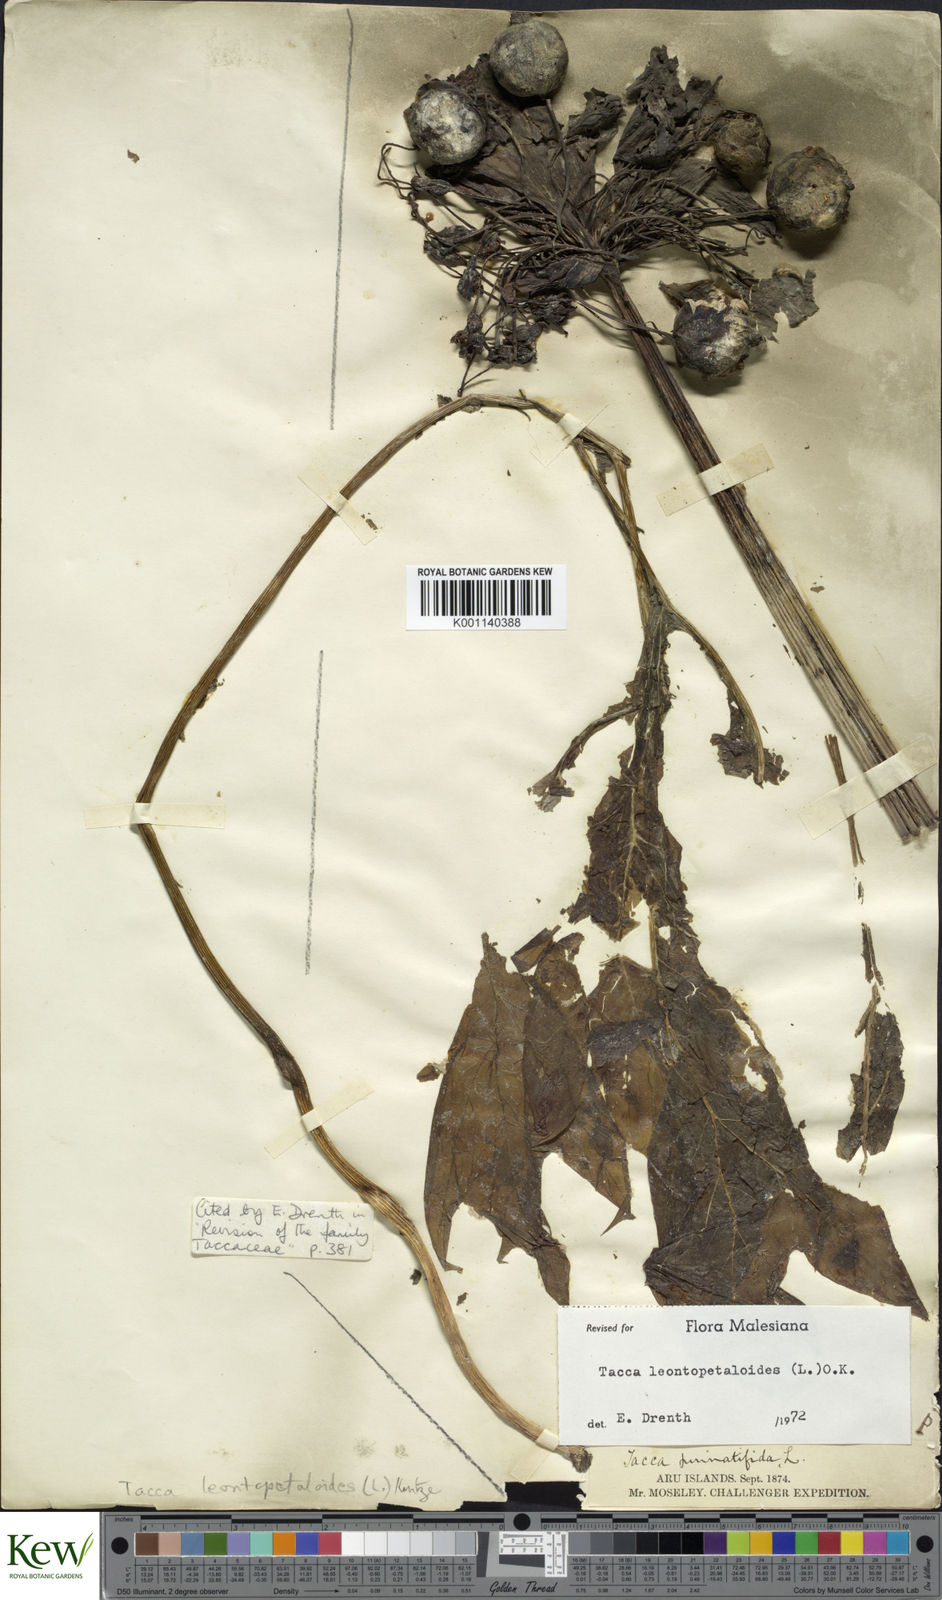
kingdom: Plantae
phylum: Tracheophyta
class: Liliopsida
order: Dioscoreales
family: Dioscoreaceae
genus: Tacca
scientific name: Tacca leontopetaloides
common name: Arrowroot
